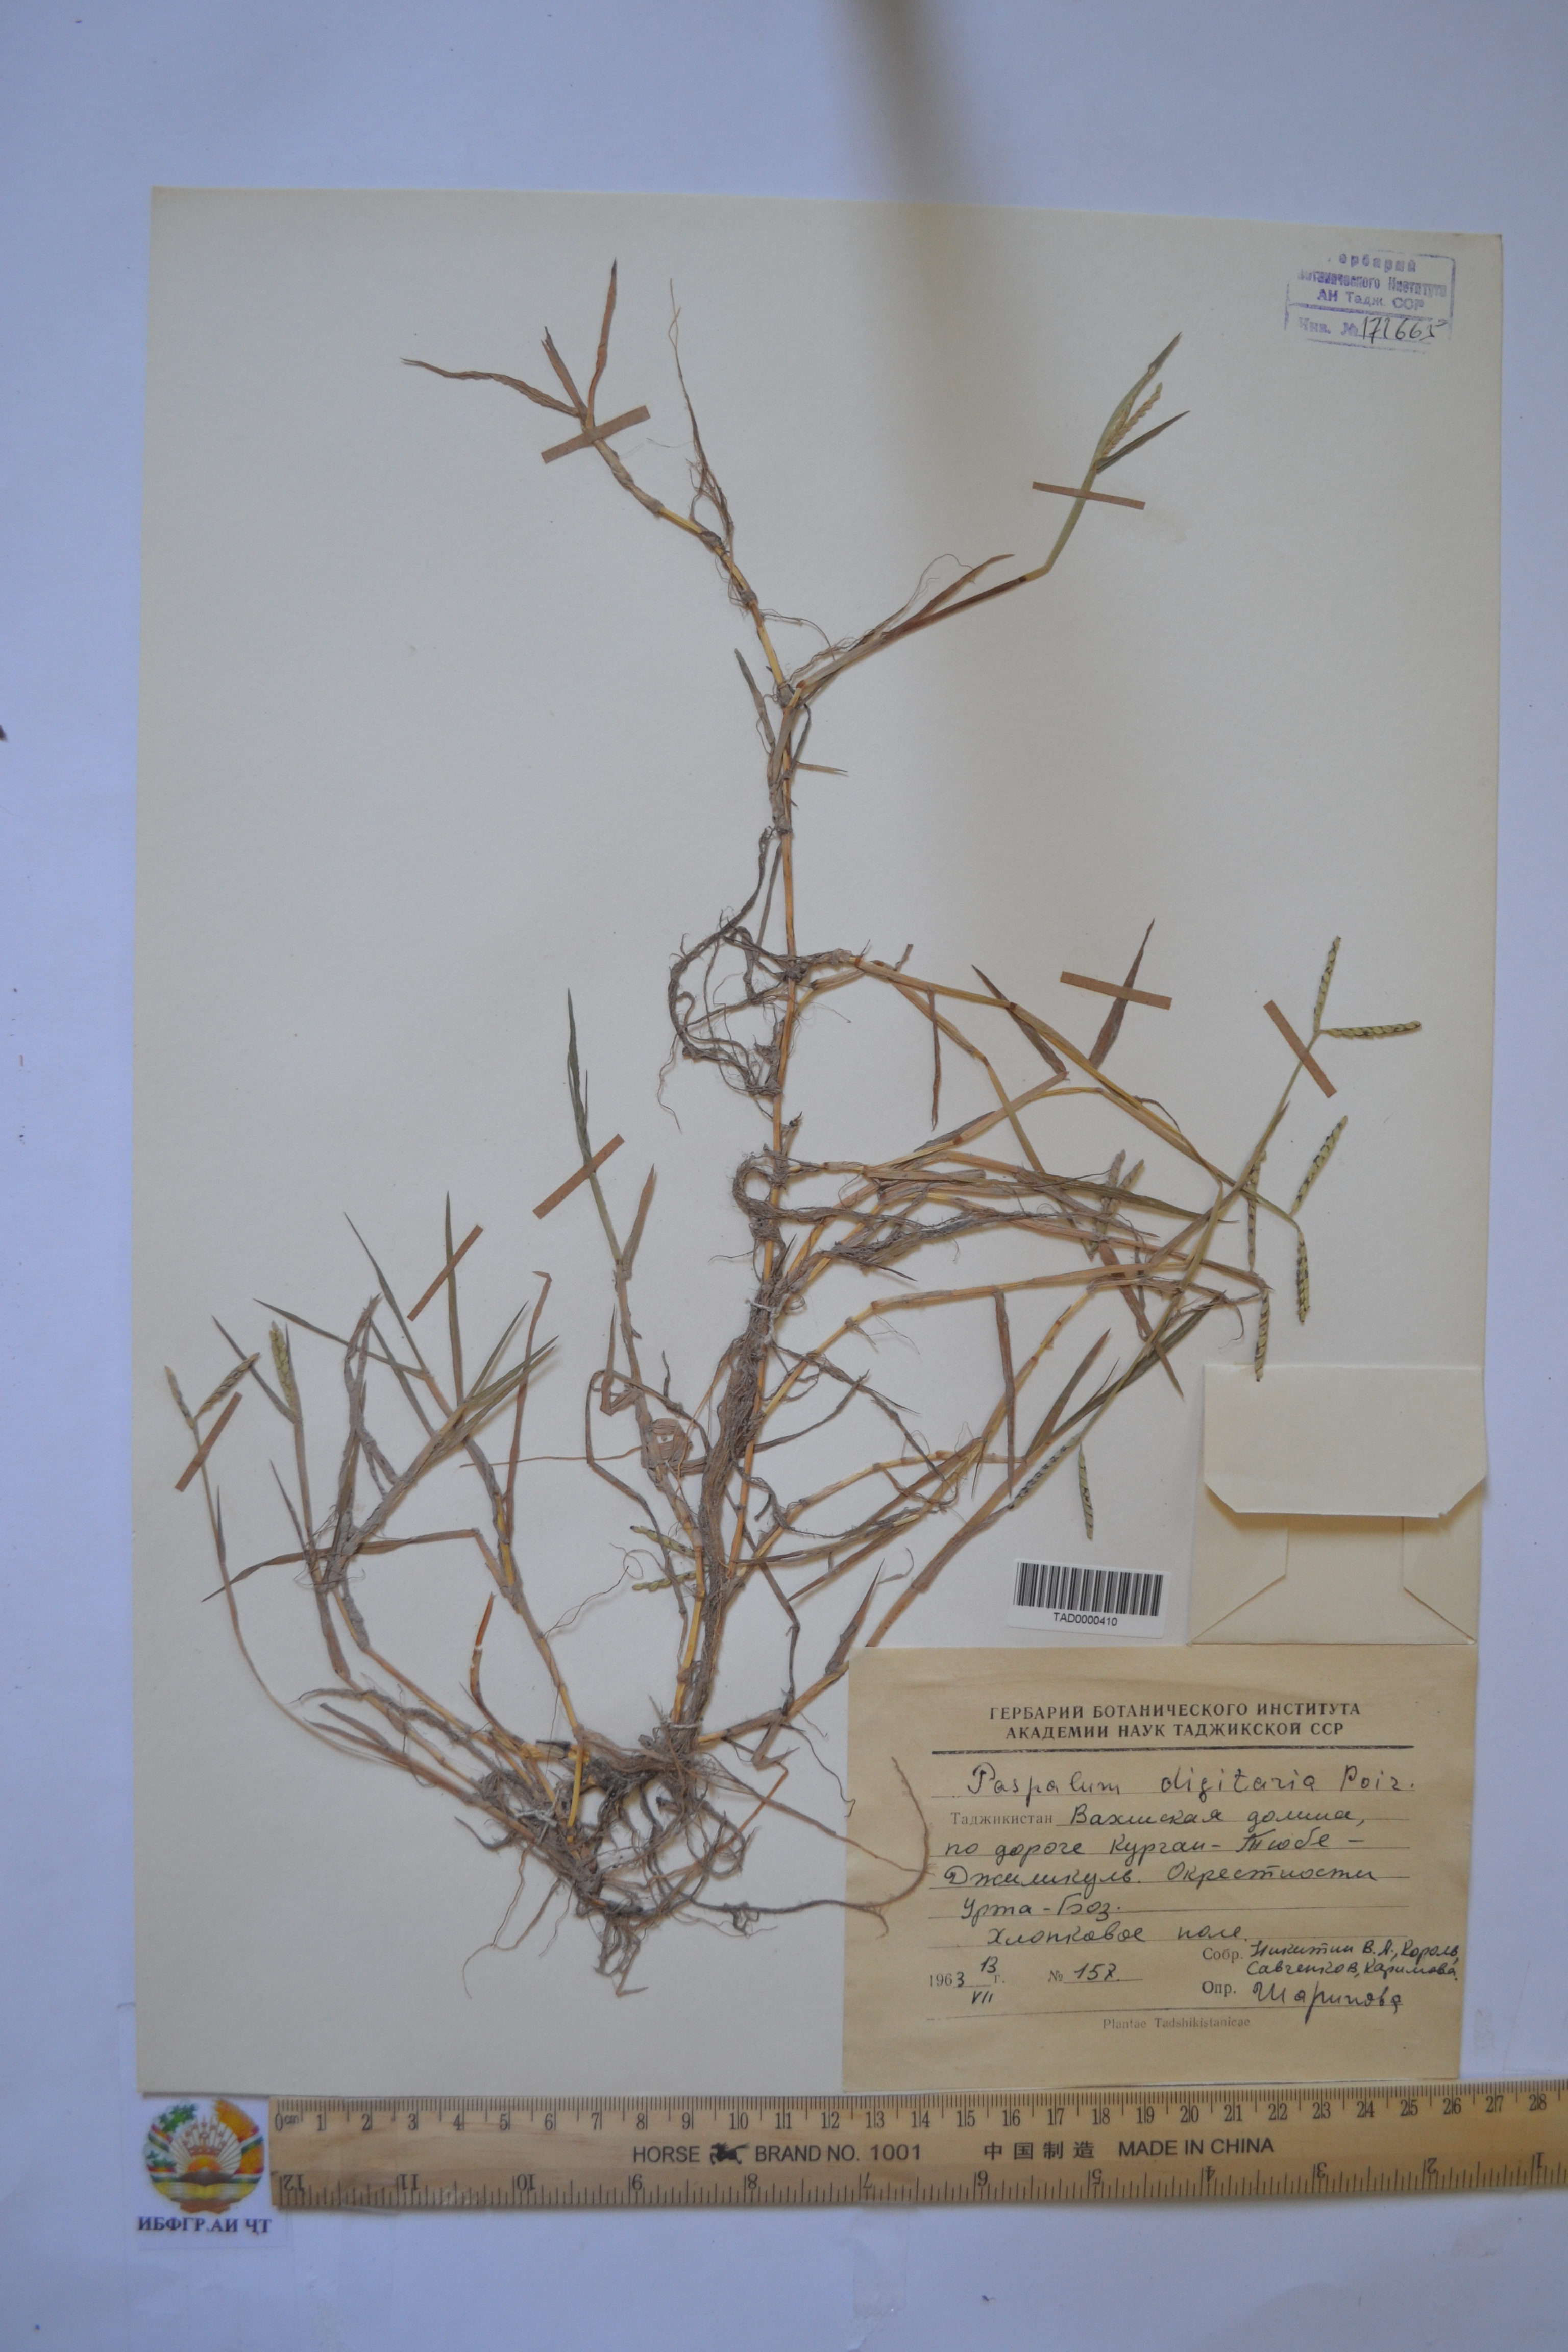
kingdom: Plantae
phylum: Tracheophyta
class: Liliopsida
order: Poales
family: Poaceae
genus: Paspalum
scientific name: Paspalum distichum
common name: Knotgrass
